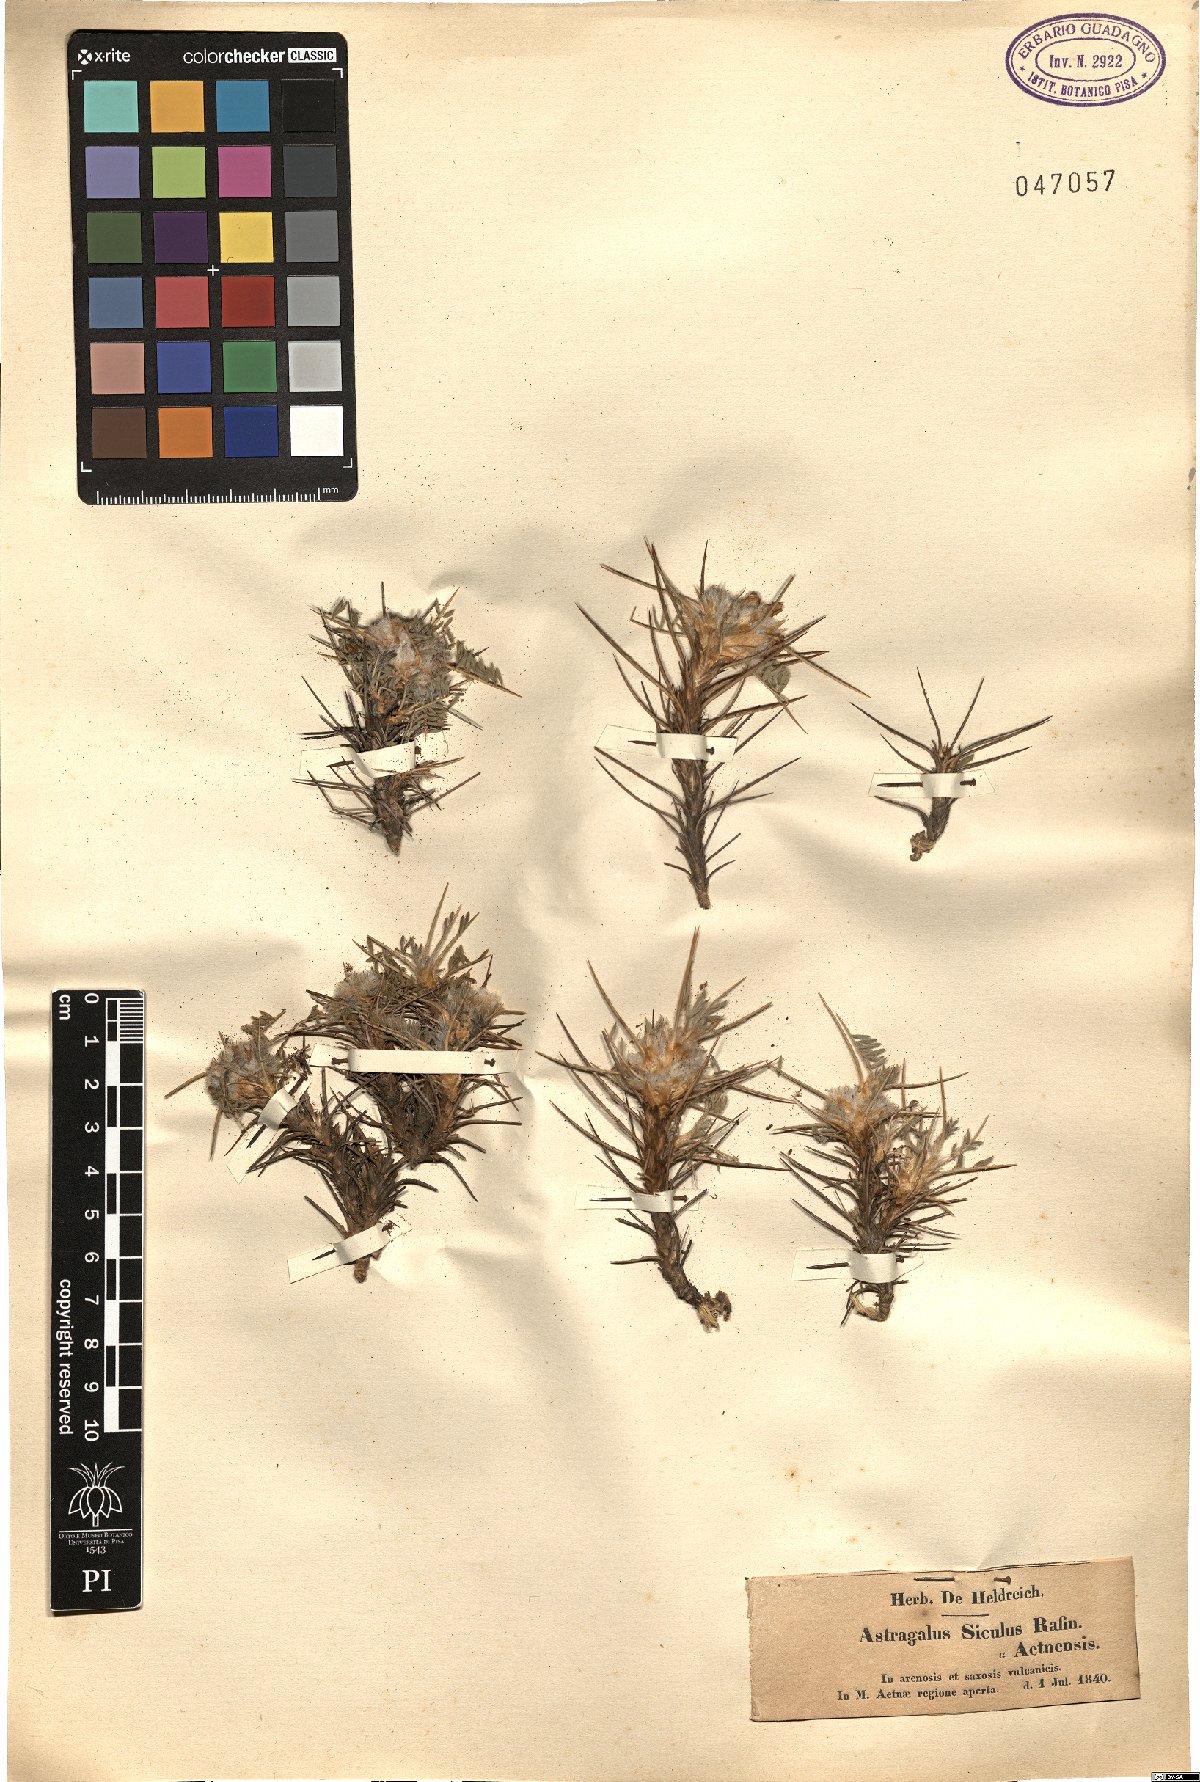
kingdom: Plantae
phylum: Tracheophyta
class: Magnoliopsida
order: Fabales
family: Fabaceae
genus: Astragalus
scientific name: Astragalus siculus
